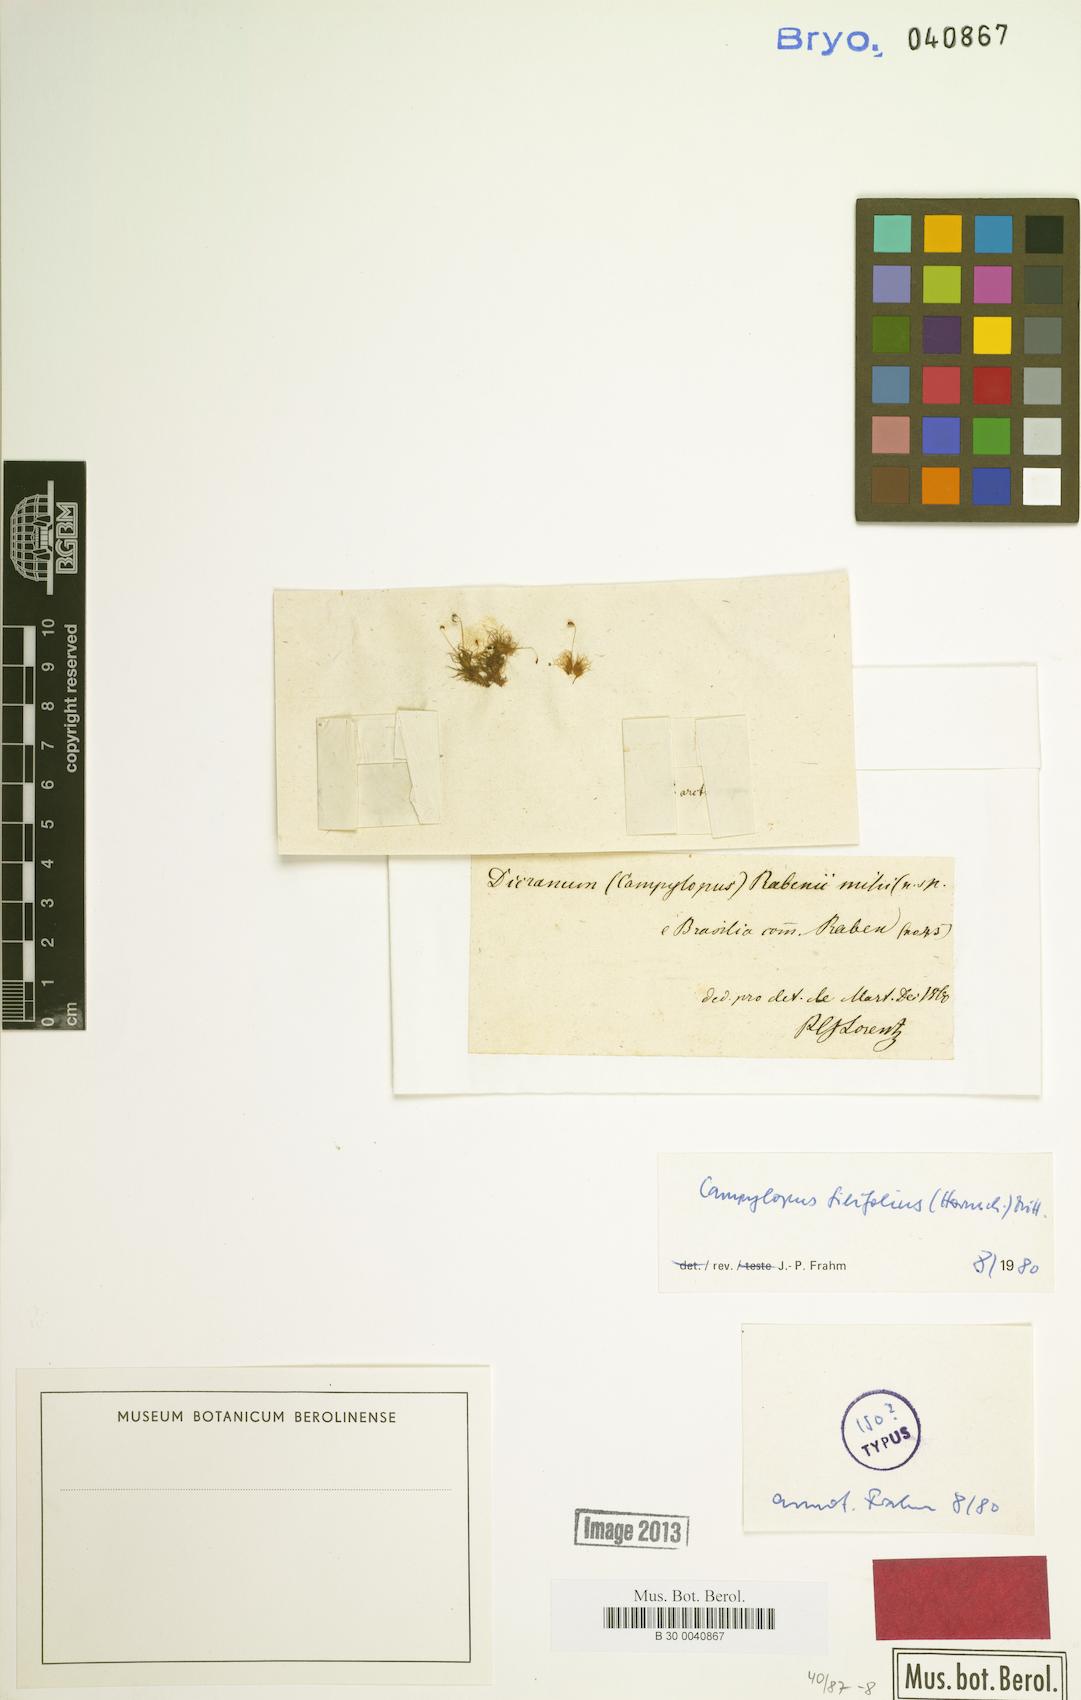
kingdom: Plantae
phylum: Bryophyta
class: Bryopsida
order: Dicranales
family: Leucobryaceae
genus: Campylopus
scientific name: Campylopus filifolius
